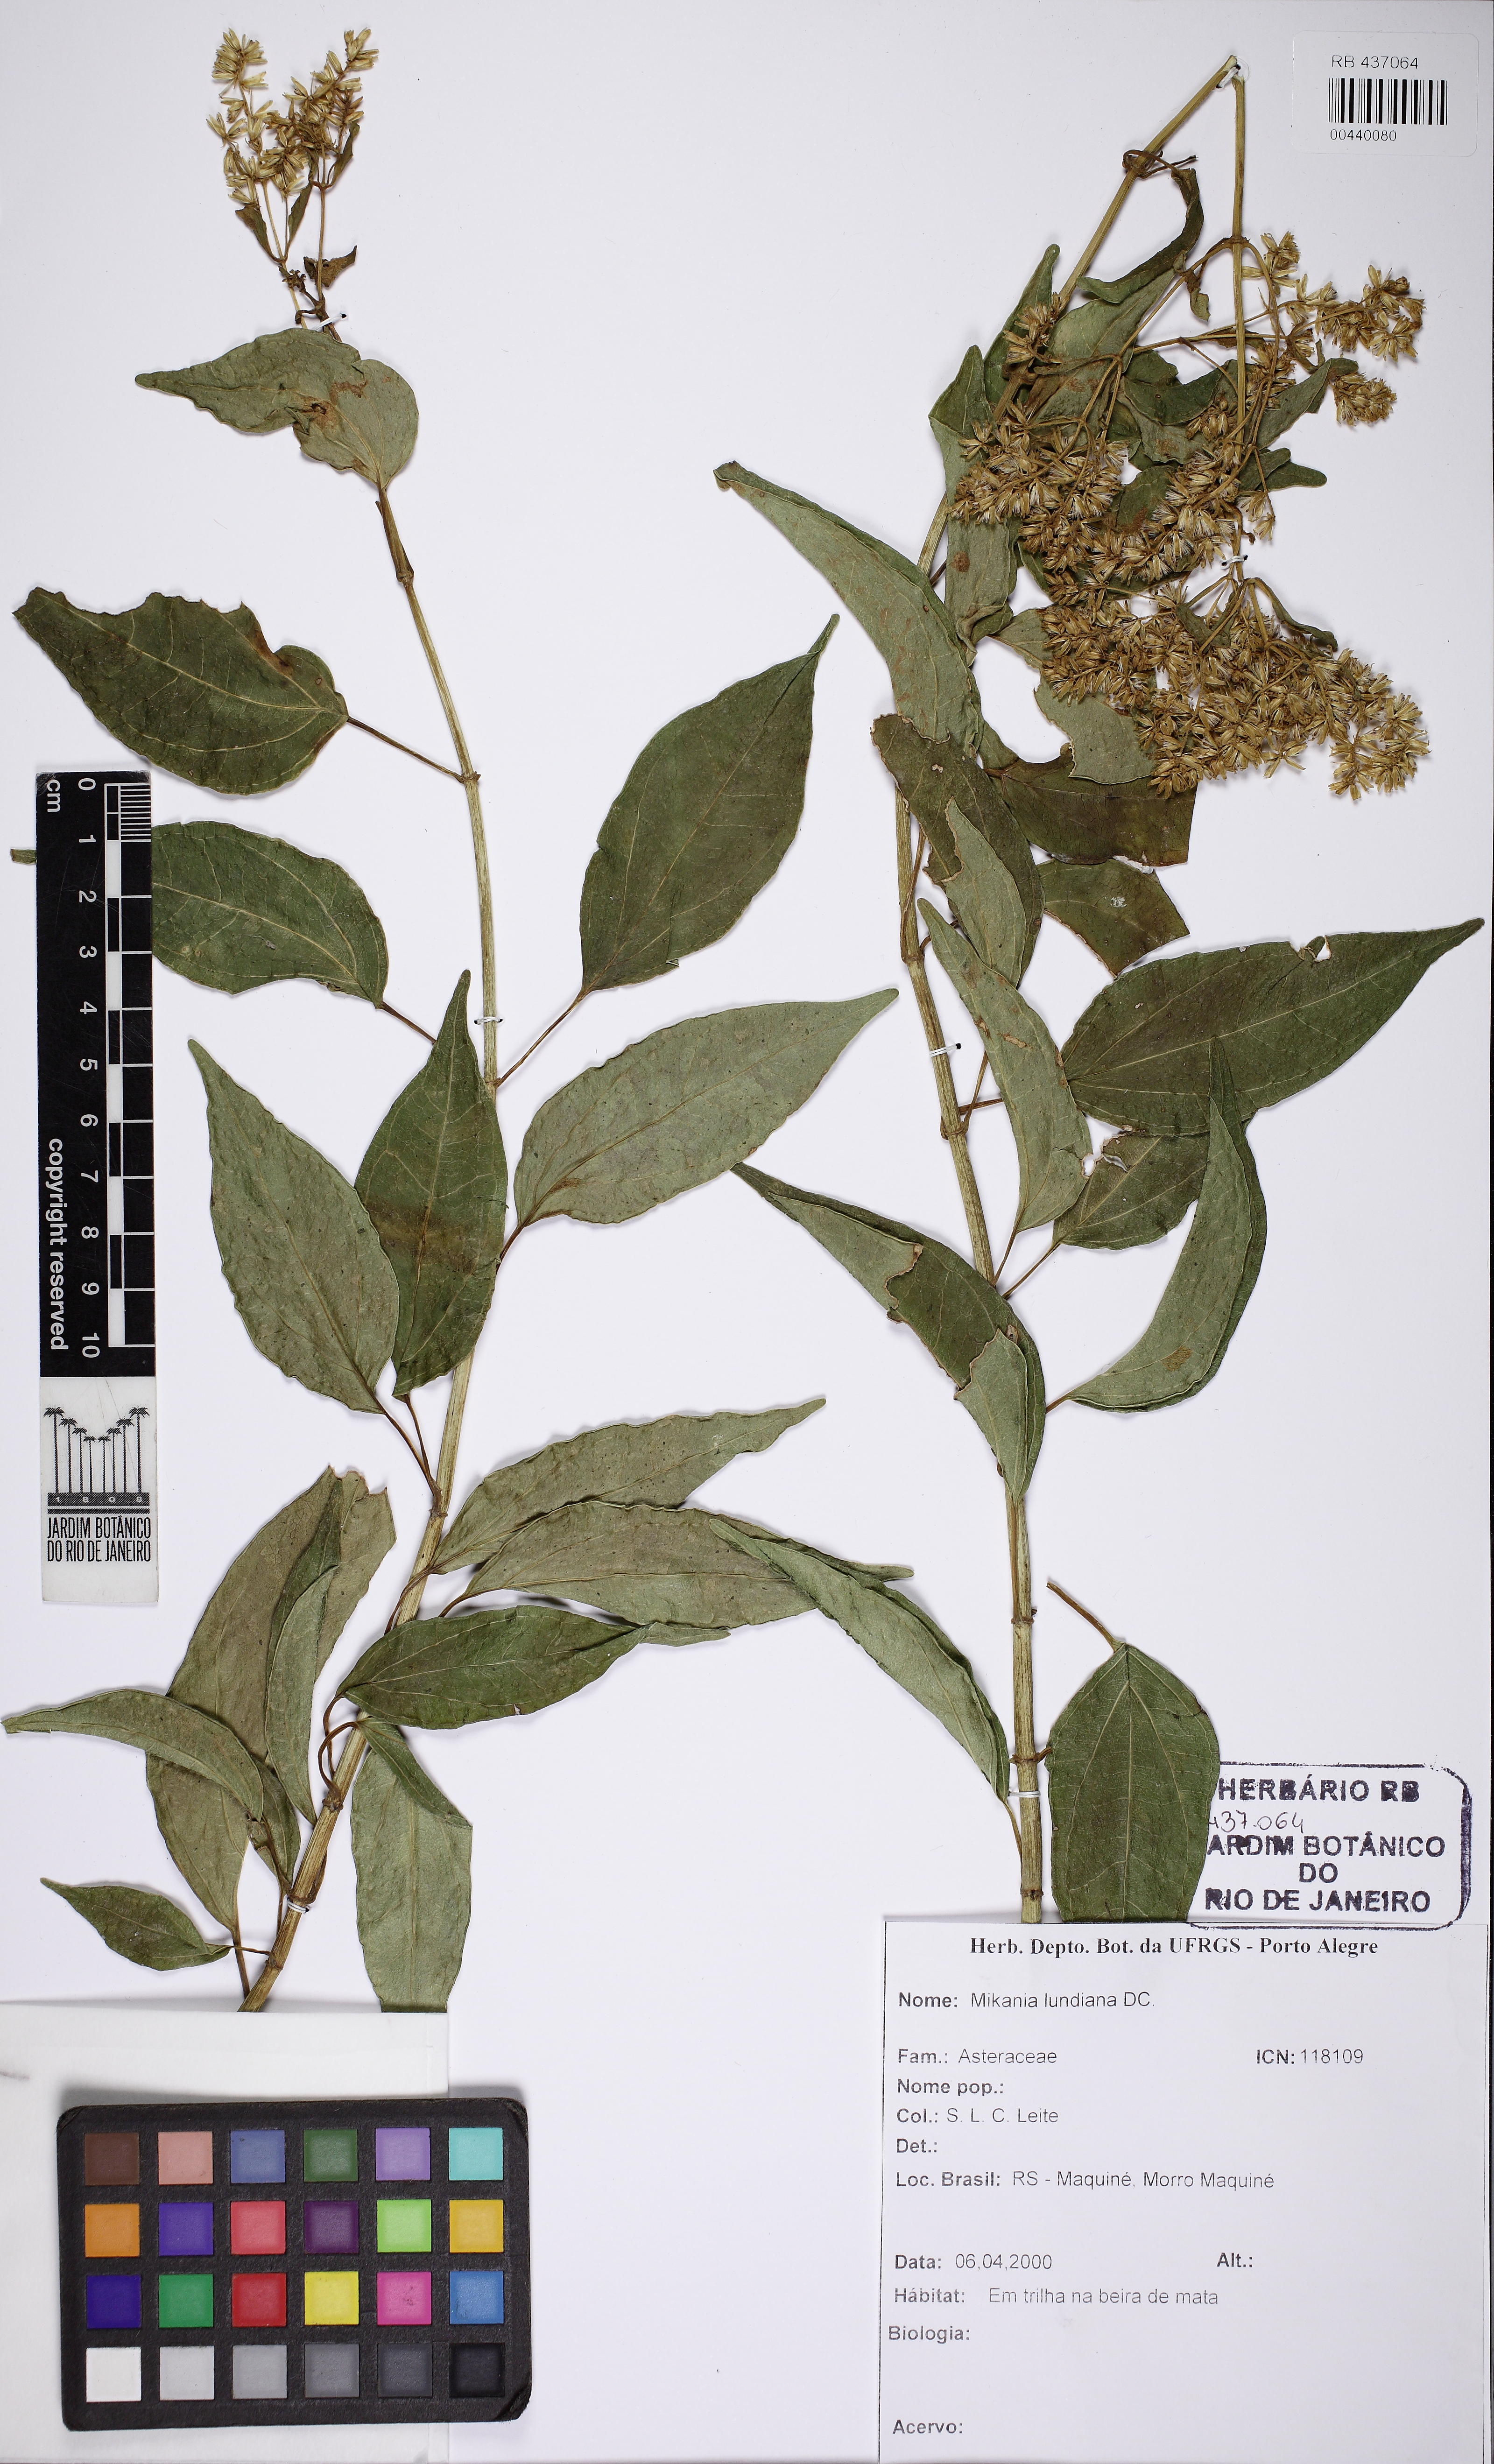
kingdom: Plantae
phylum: Tracheophyta
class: Magnoliopsida
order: Asterales
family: Asteraceae
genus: Mikania
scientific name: Mikania lundiana
